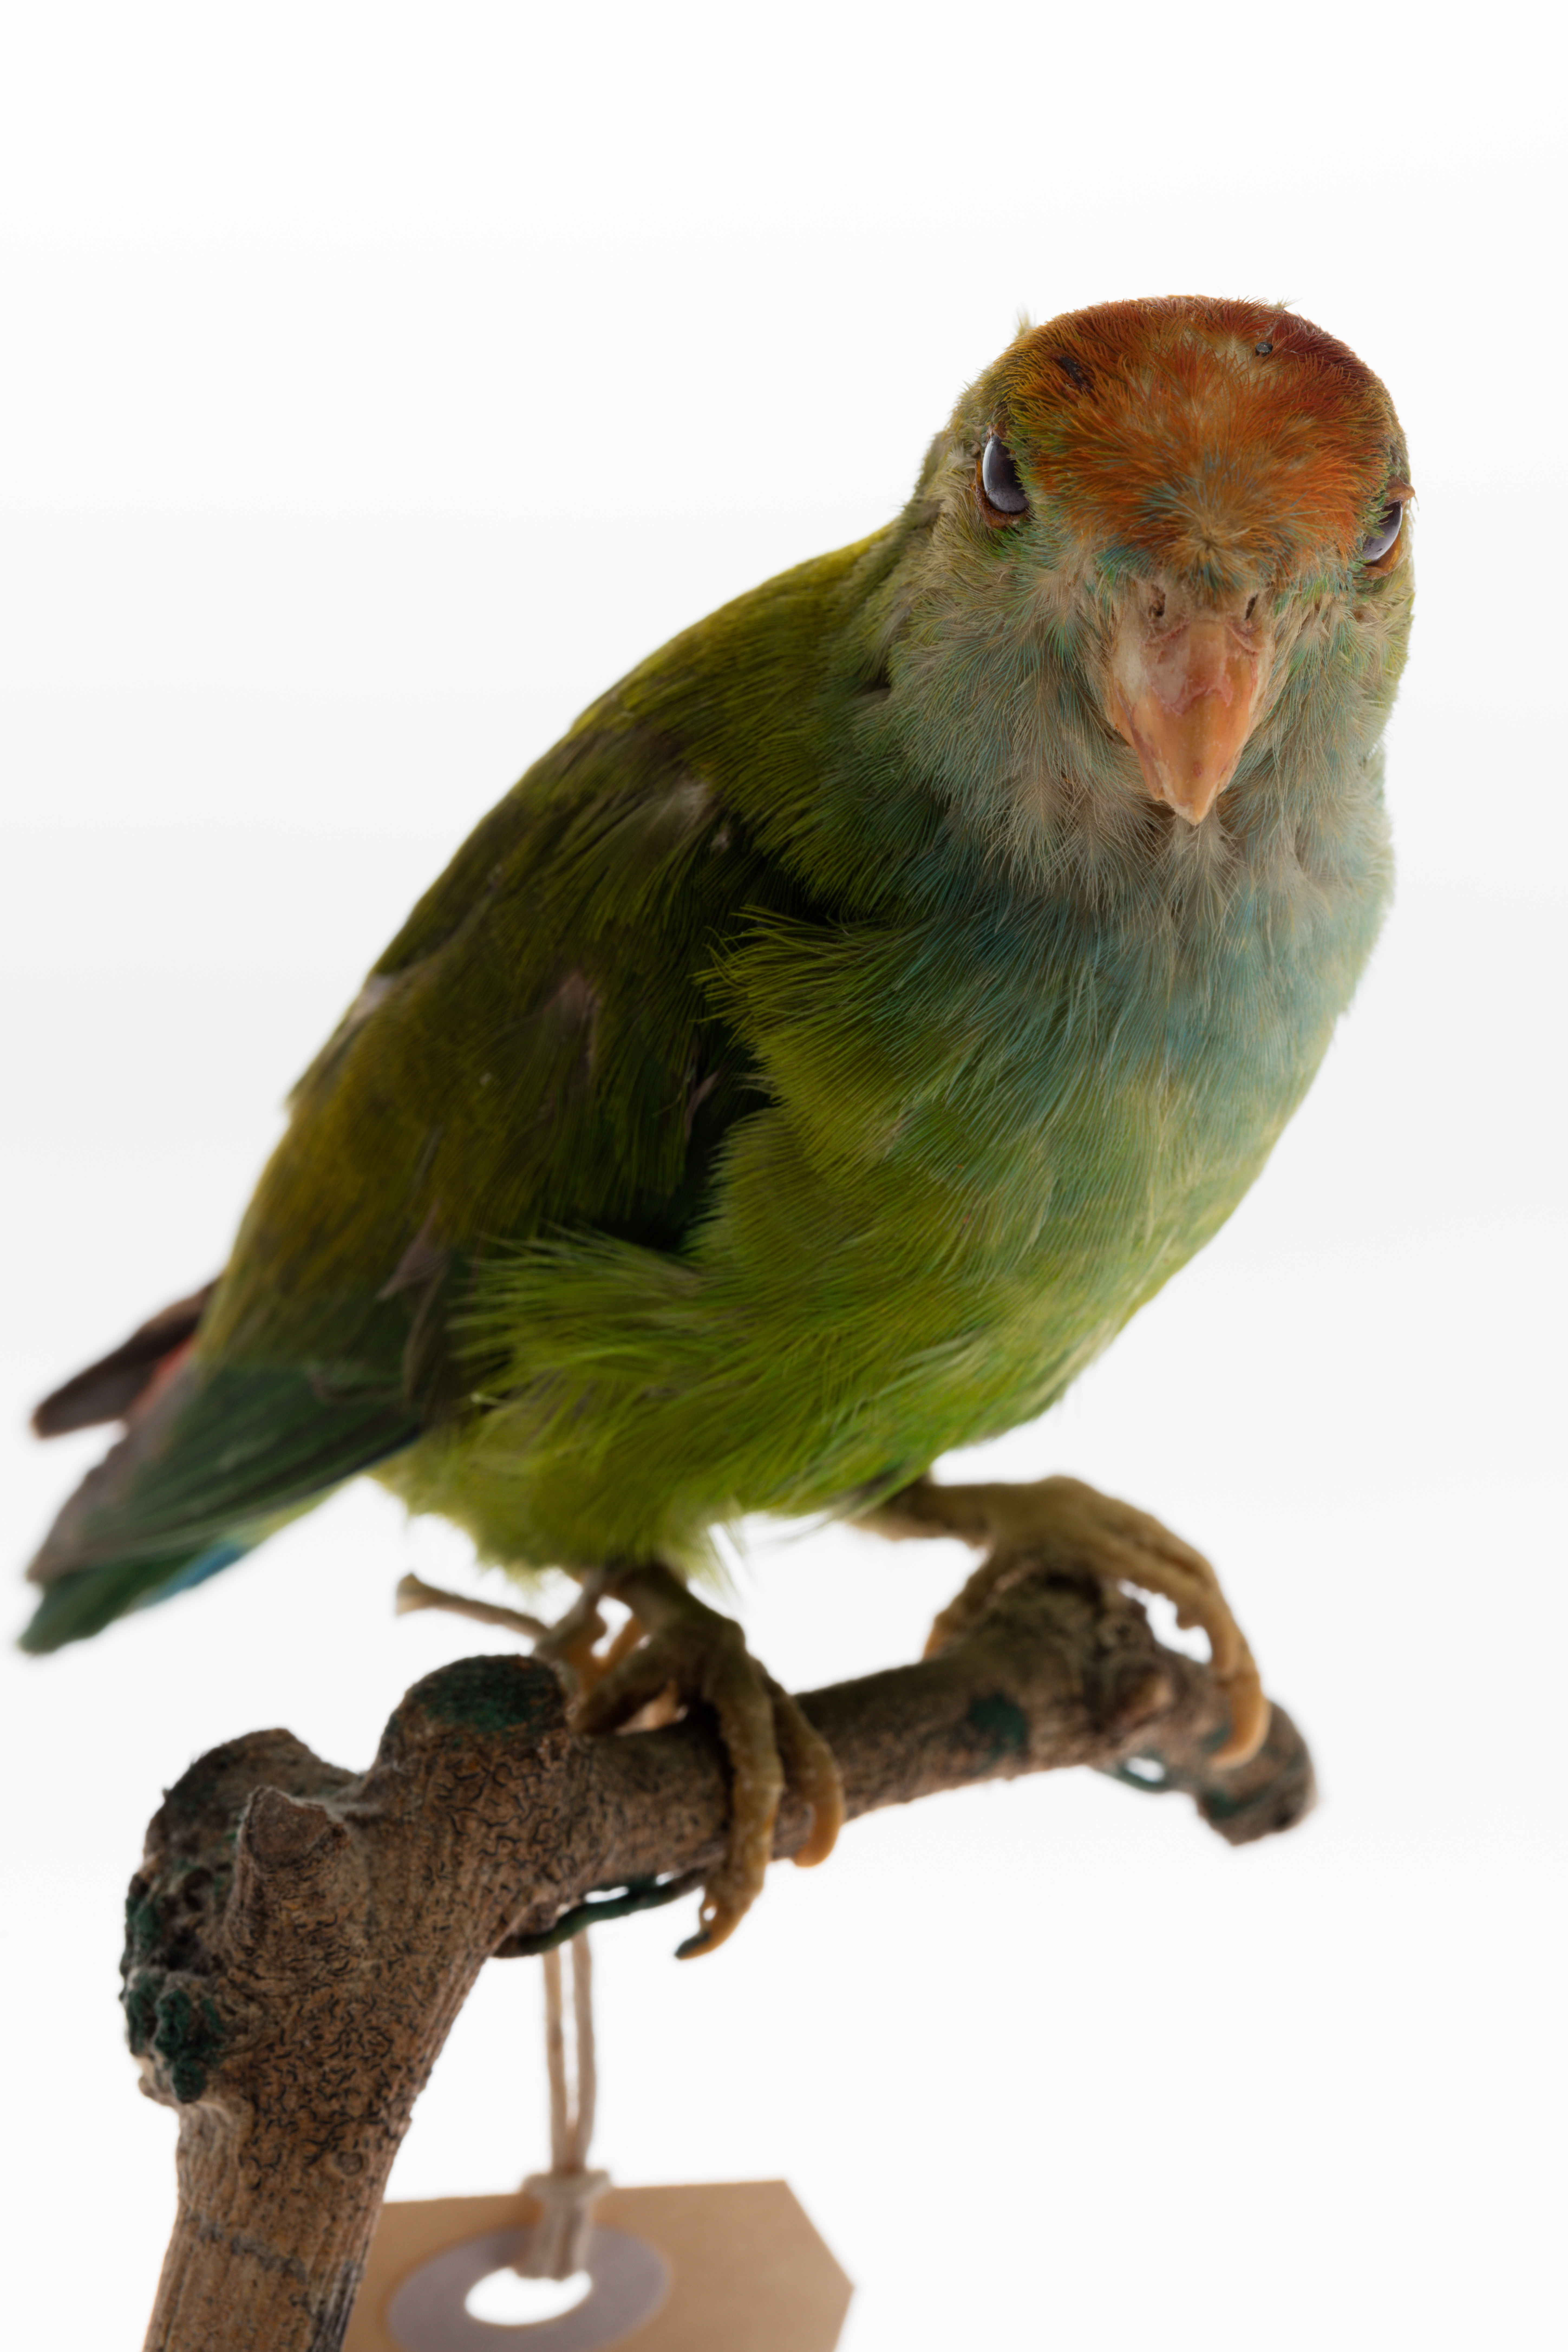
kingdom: Animalia
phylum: Chordata
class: Aves
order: Psittaciformes
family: Psittacidae
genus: Loriculus
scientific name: Loriculus beryllinus
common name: Sri lanka hanging parrot
